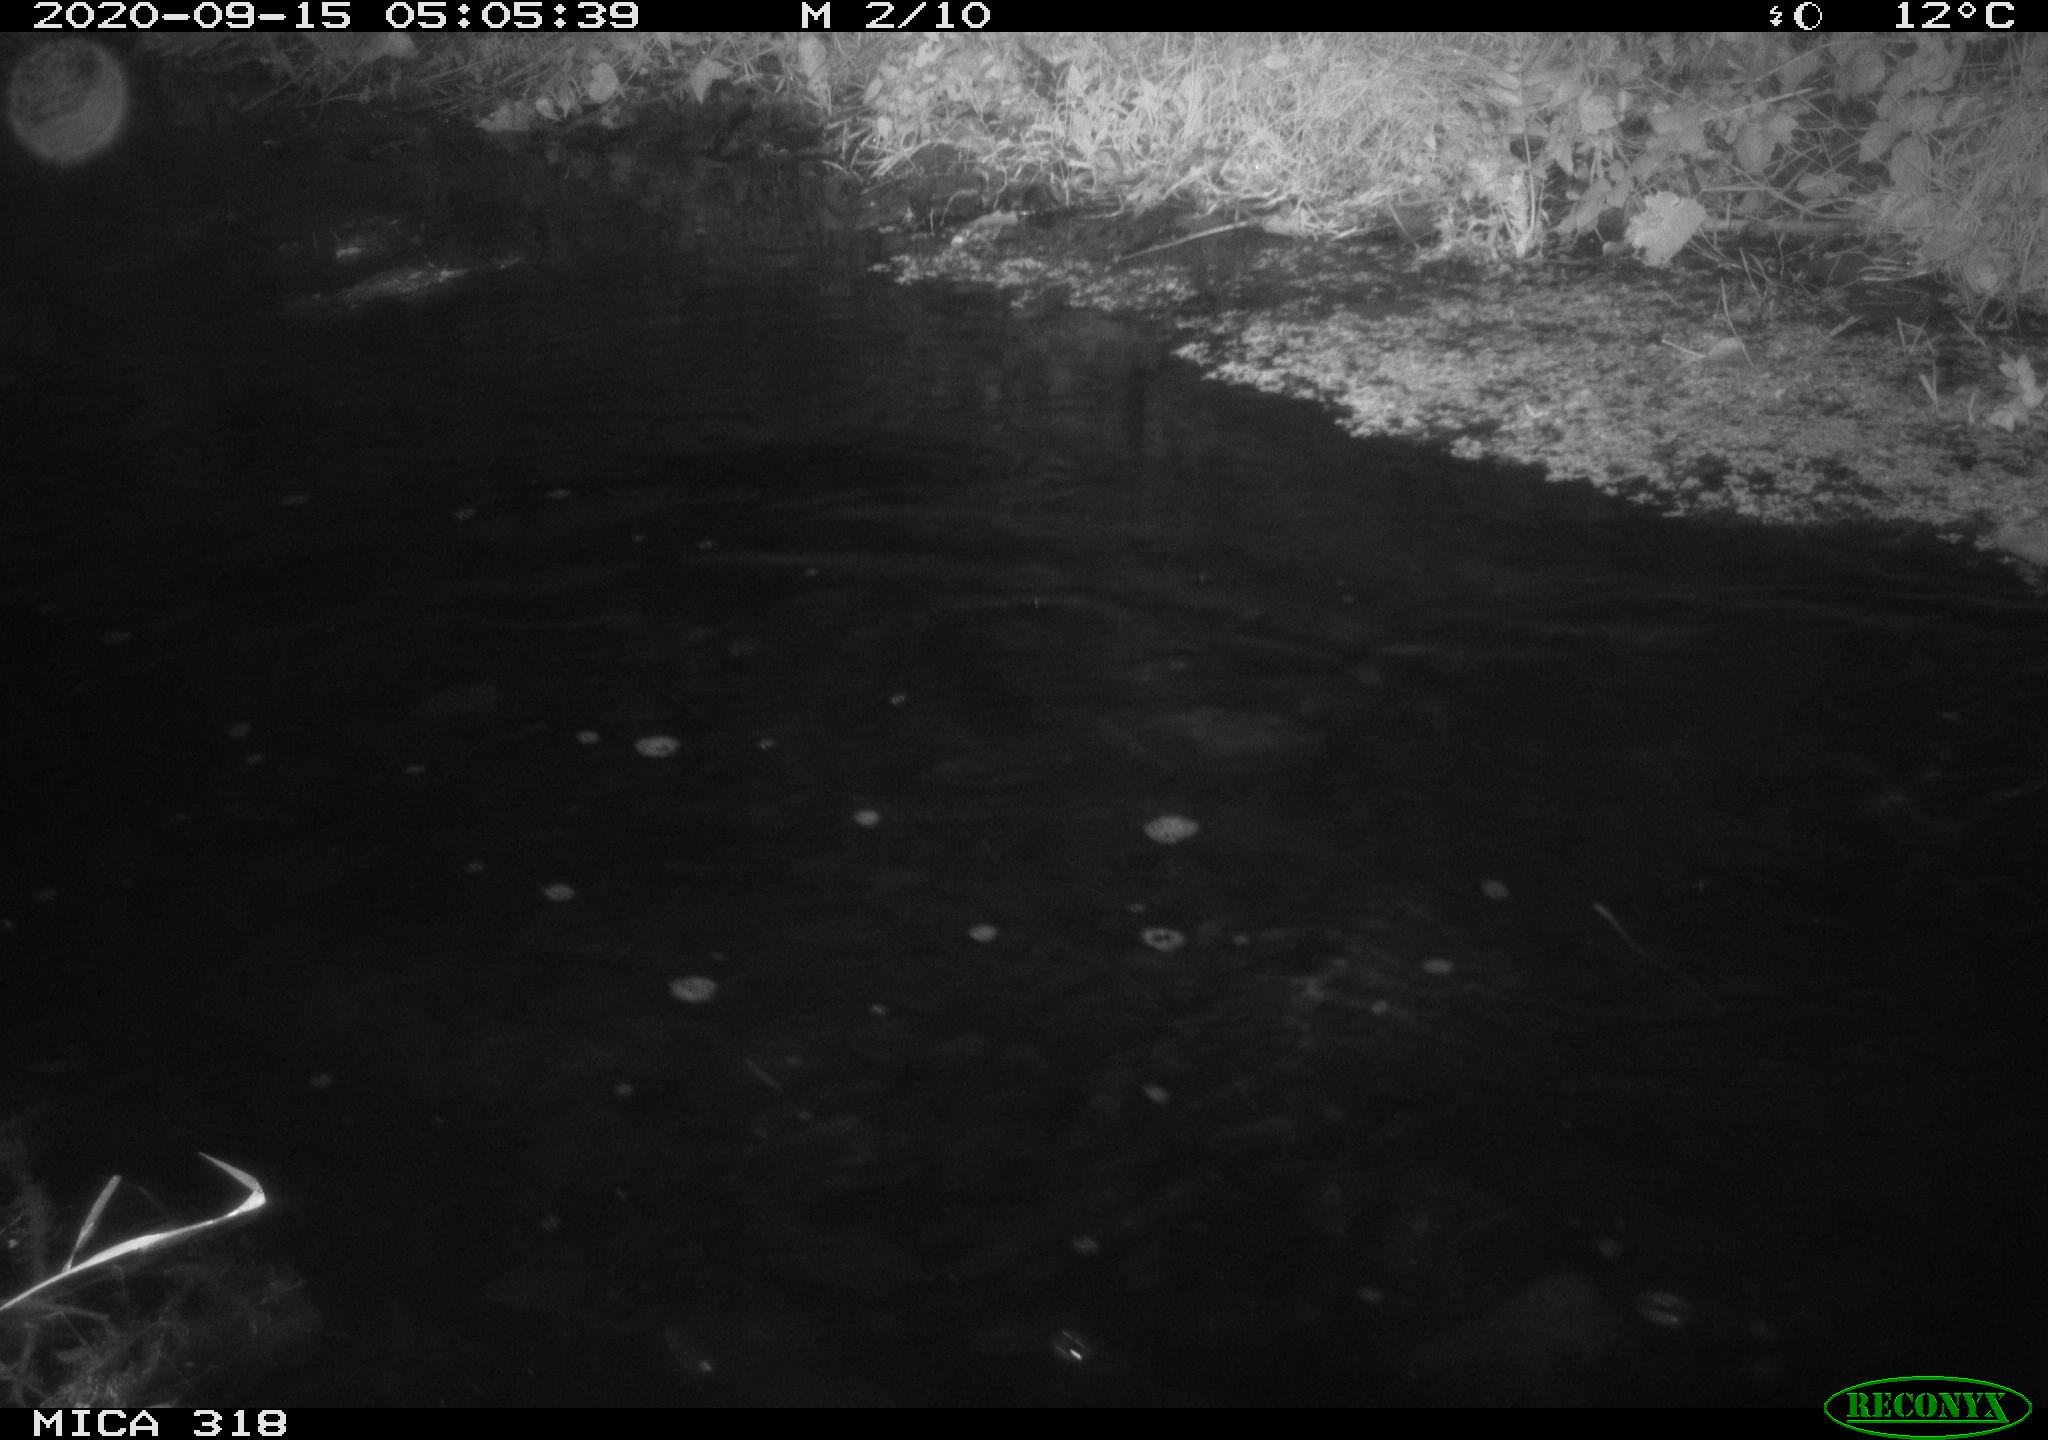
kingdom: Animalia
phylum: Chordata
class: Mammalia
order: Rodentia
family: Muridae
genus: Rattus
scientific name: Rattus norvegicus
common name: Brown rat
